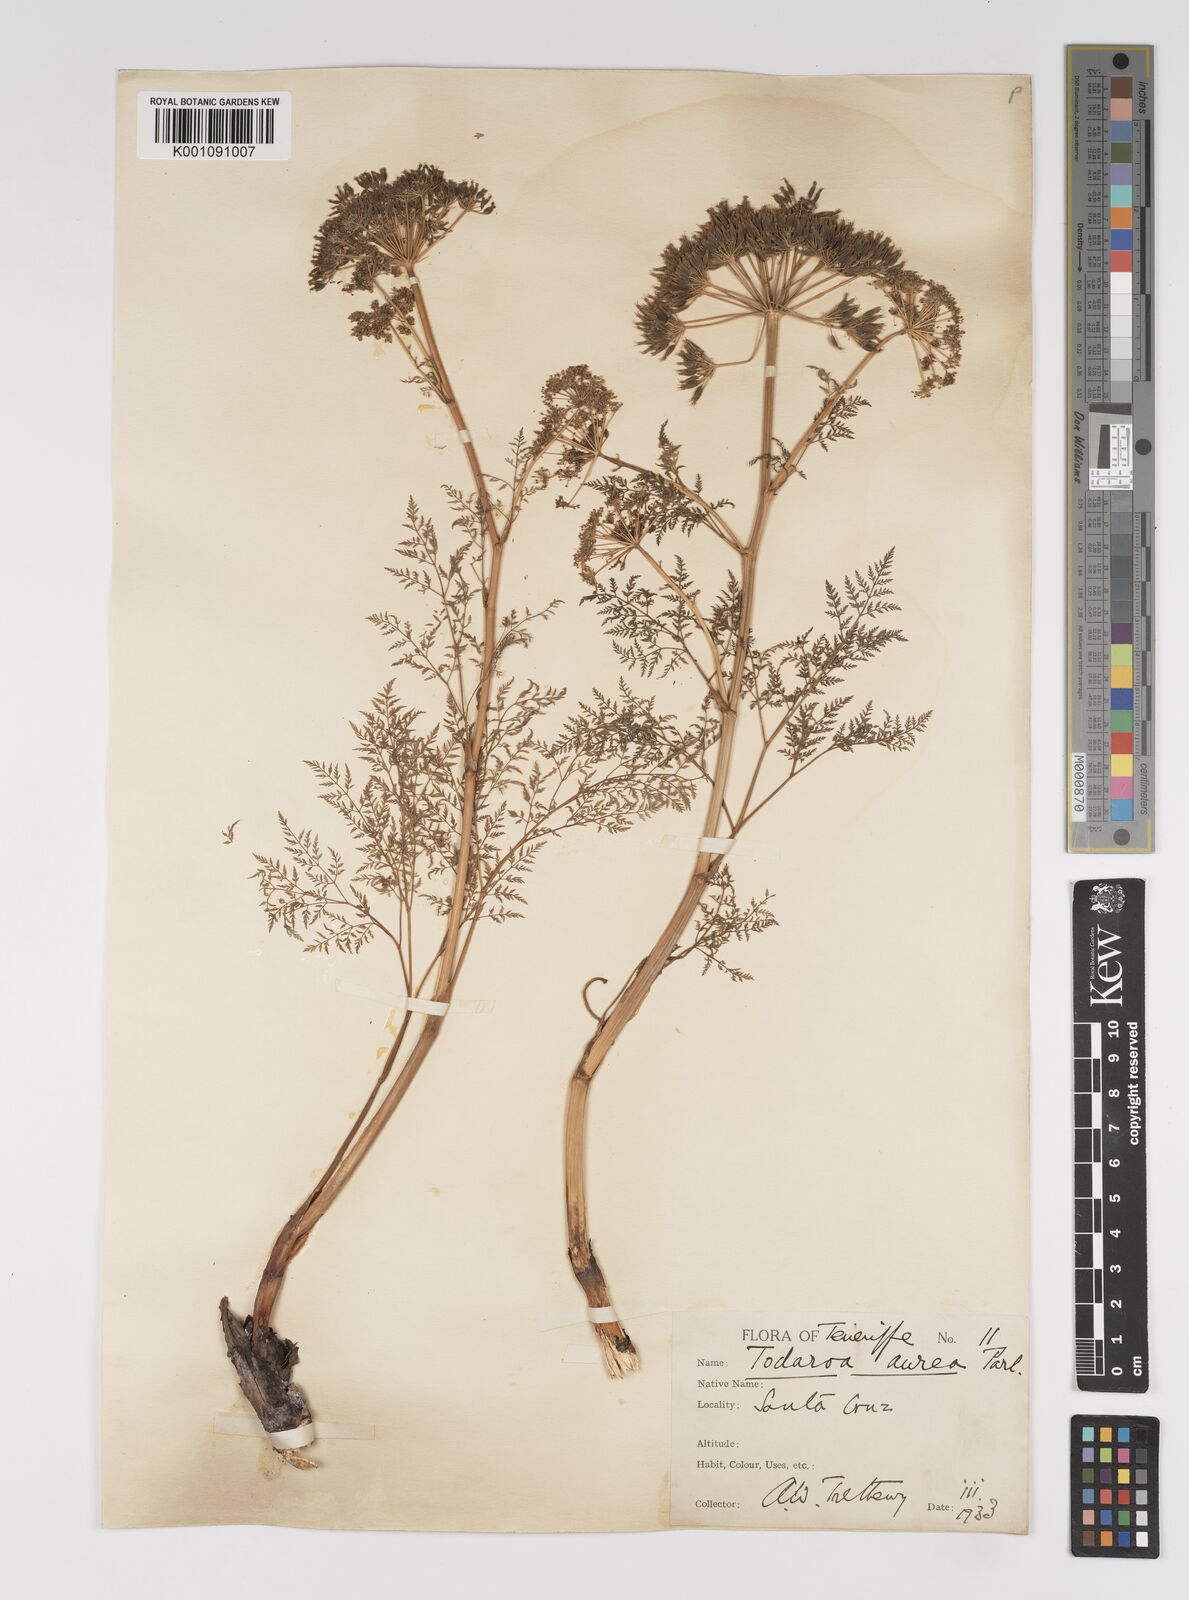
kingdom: Plantae
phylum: Tracheophyta
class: Magnoliopsida
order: Apiales
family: Apiaceae
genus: Todaroa
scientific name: Todaroa aurea
